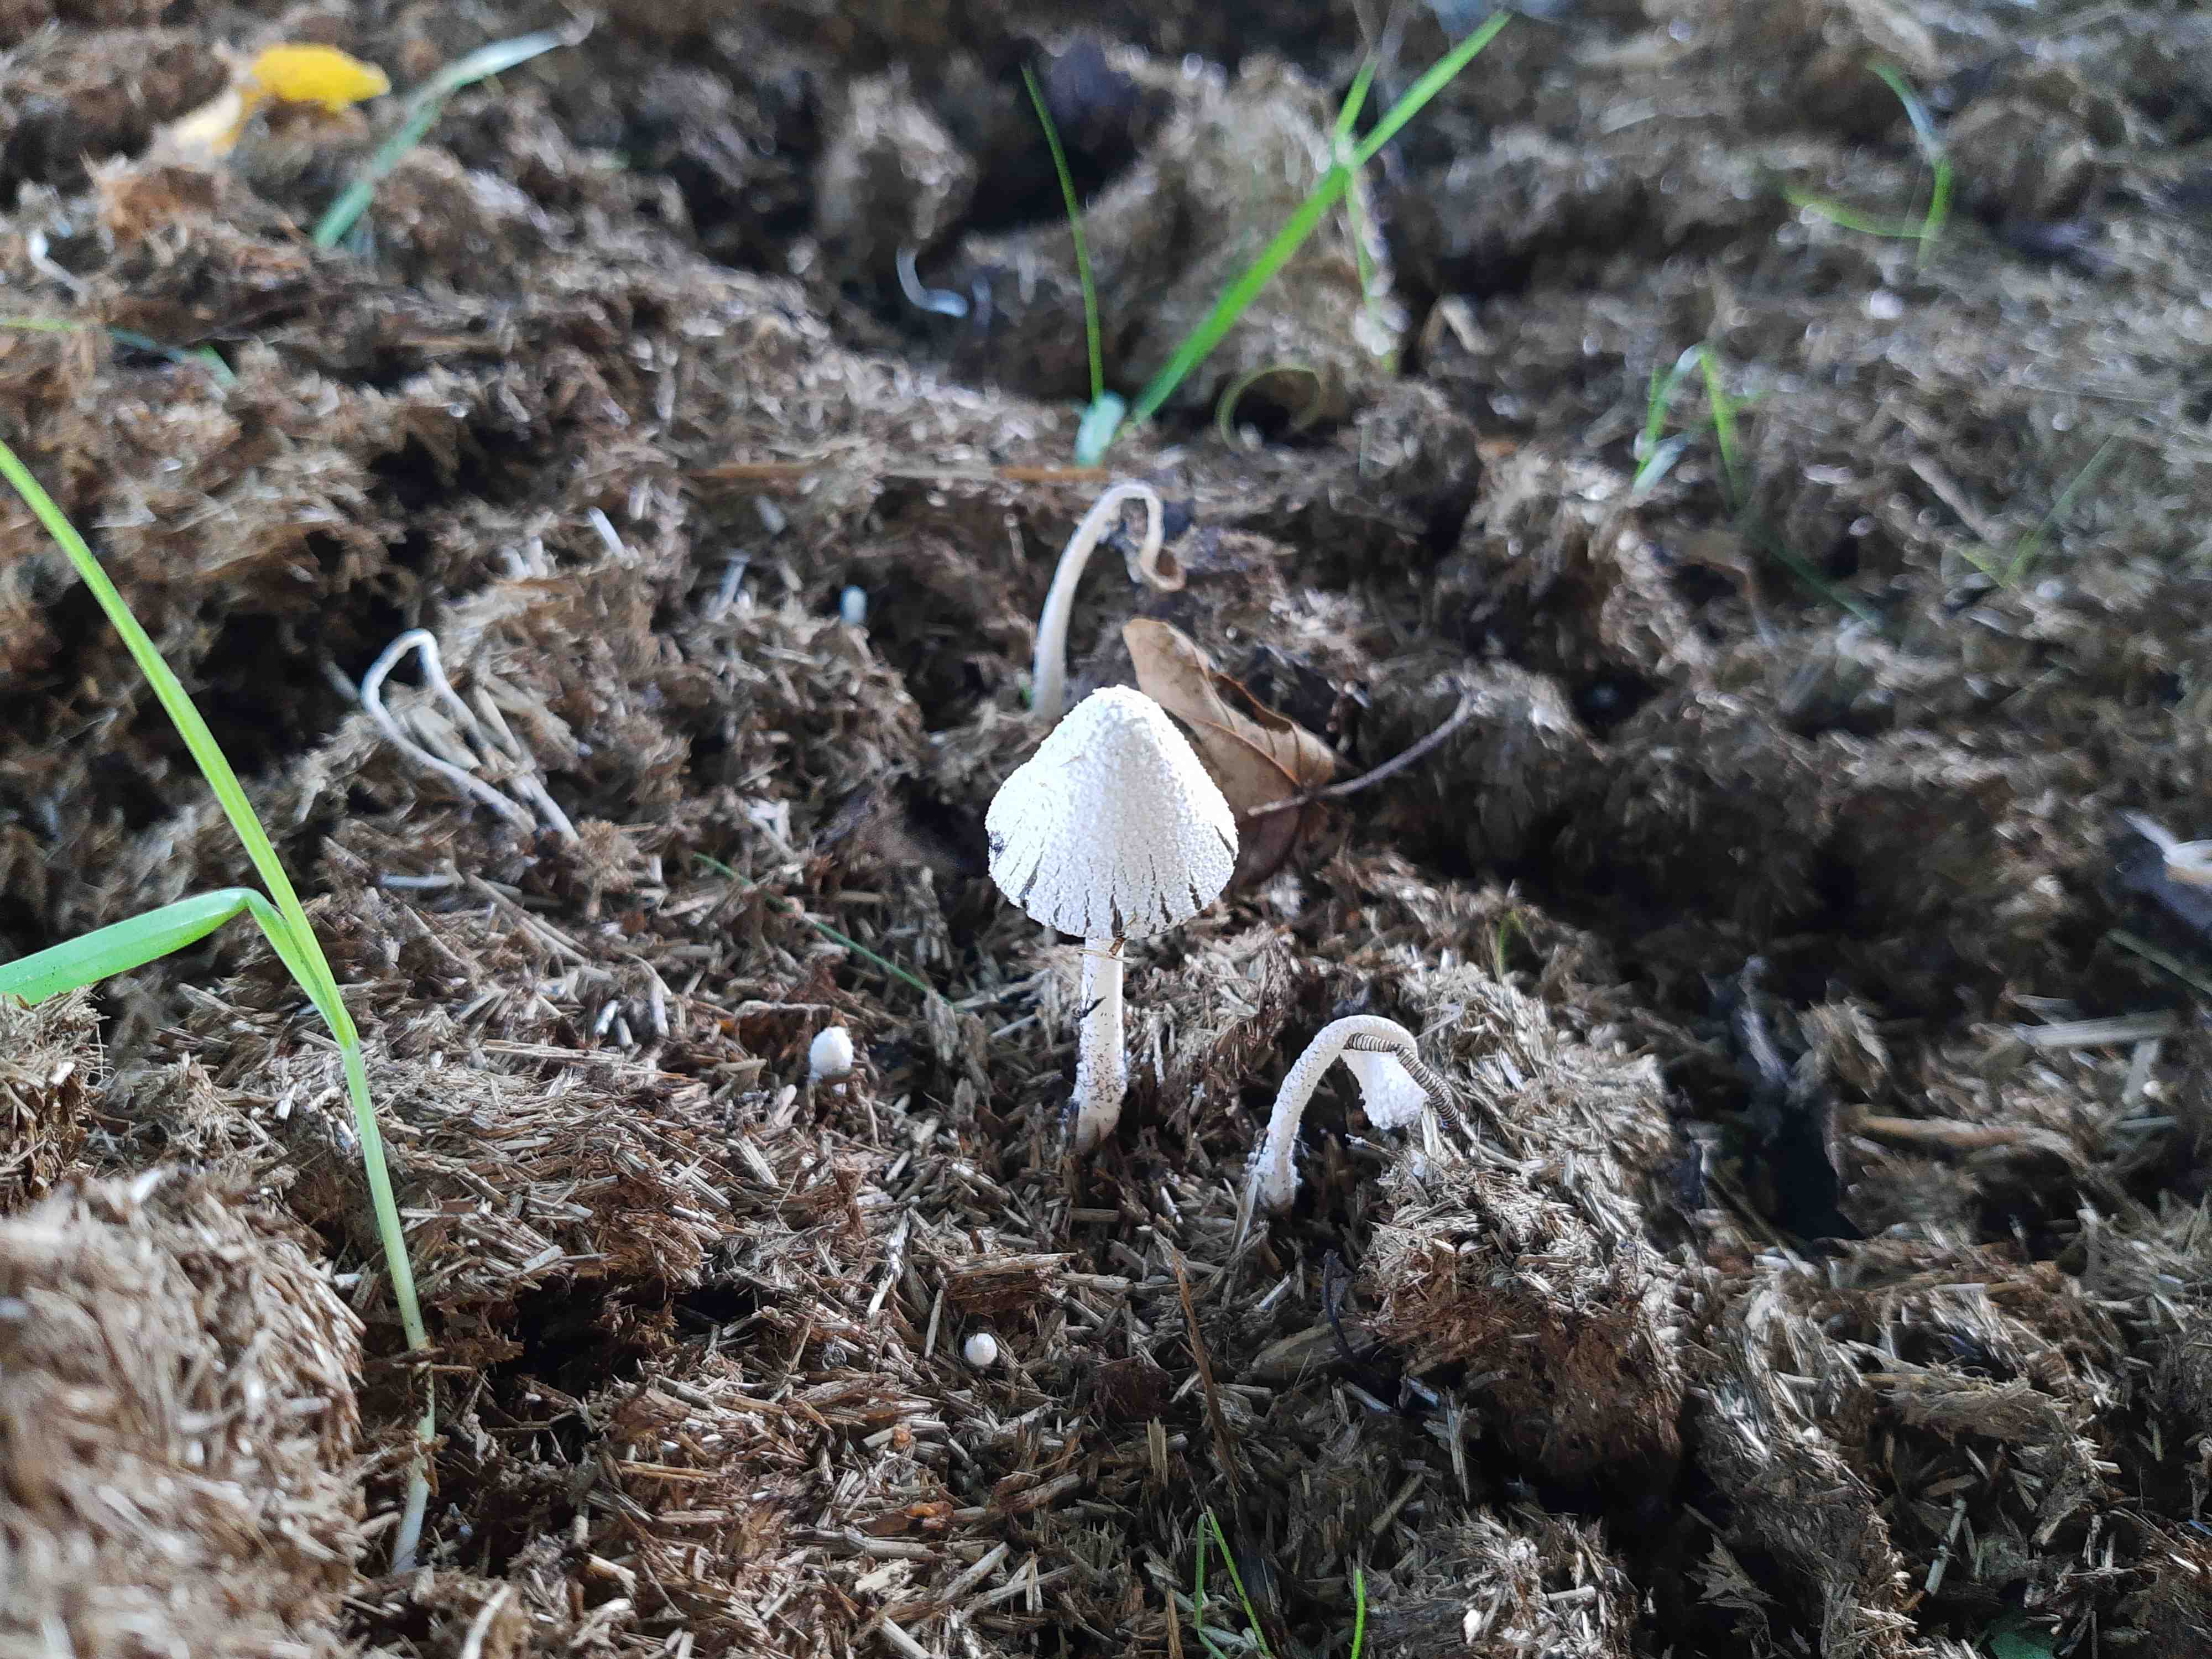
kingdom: Fungi
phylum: Basidiomycota
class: Agaricomycetes
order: Agaricales
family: Psathyrellaceae
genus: Coprinopsis
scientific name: Coprinopsis nivea
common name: snehvid blækhat
